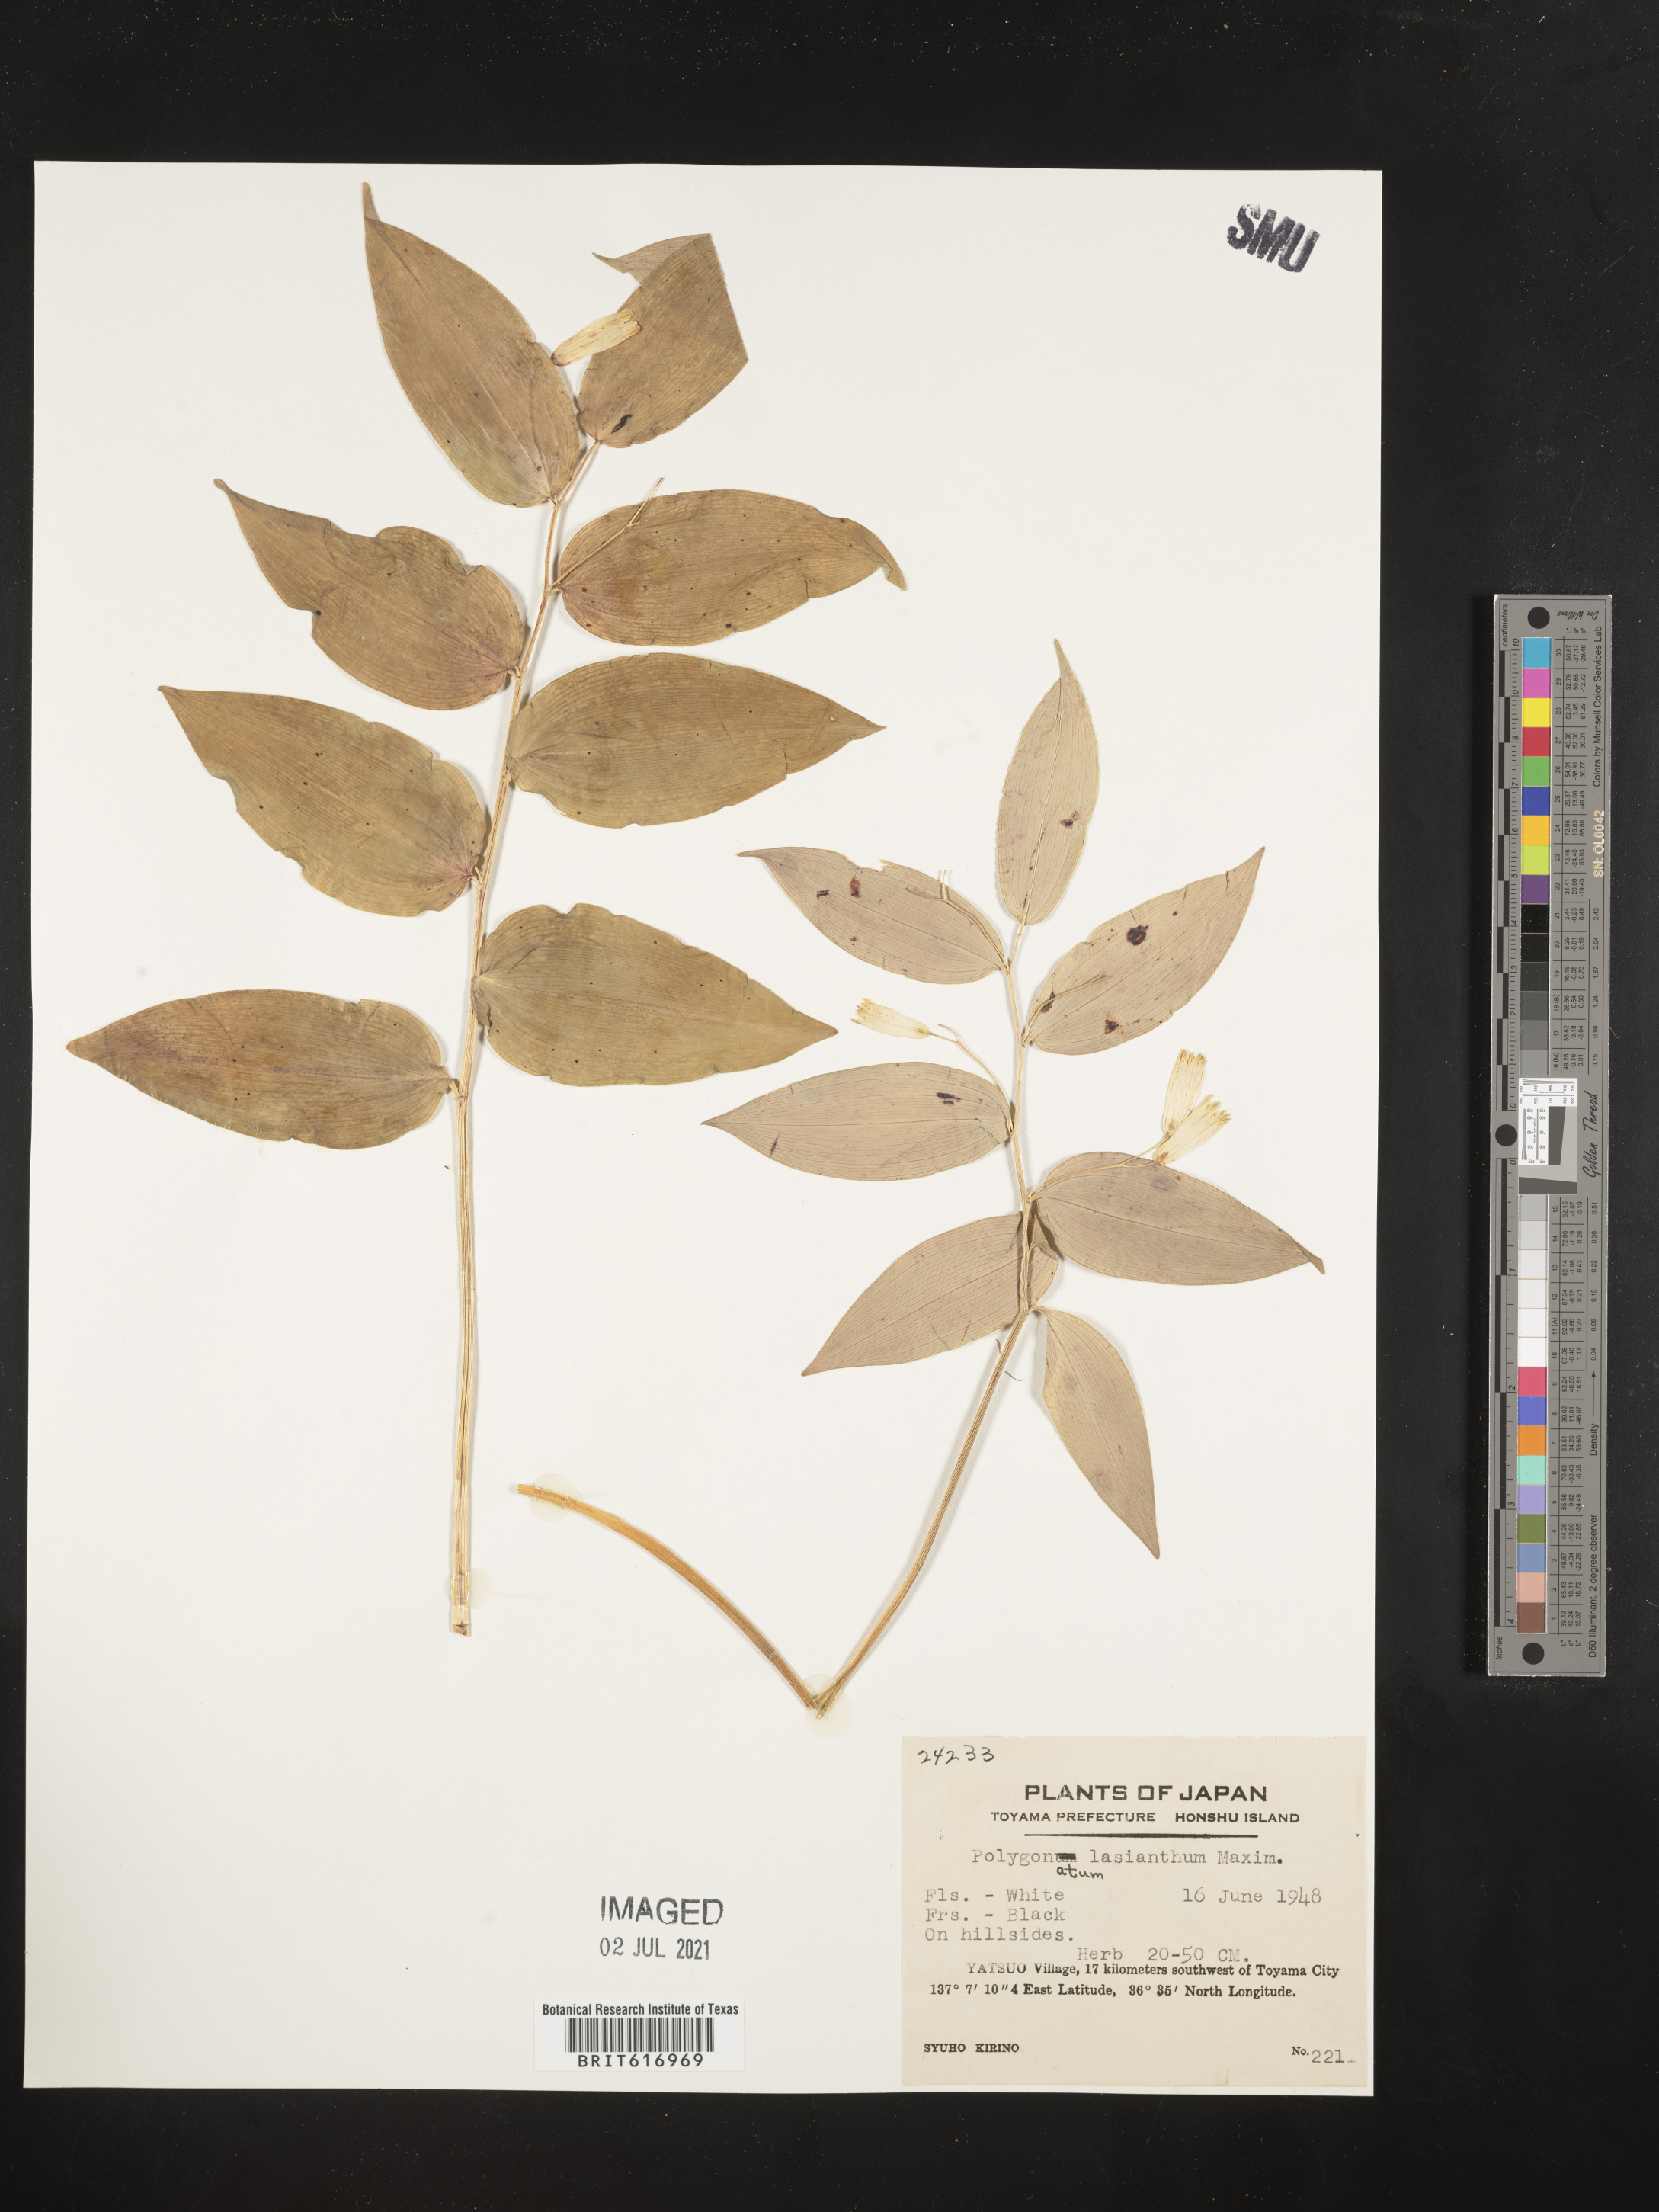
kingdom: Plantae
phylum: Tracheophyta
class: Liliopsida
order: Asparagales
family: Asparagaceae
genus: Polygonatum
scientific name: Polygonatum lasianthum
